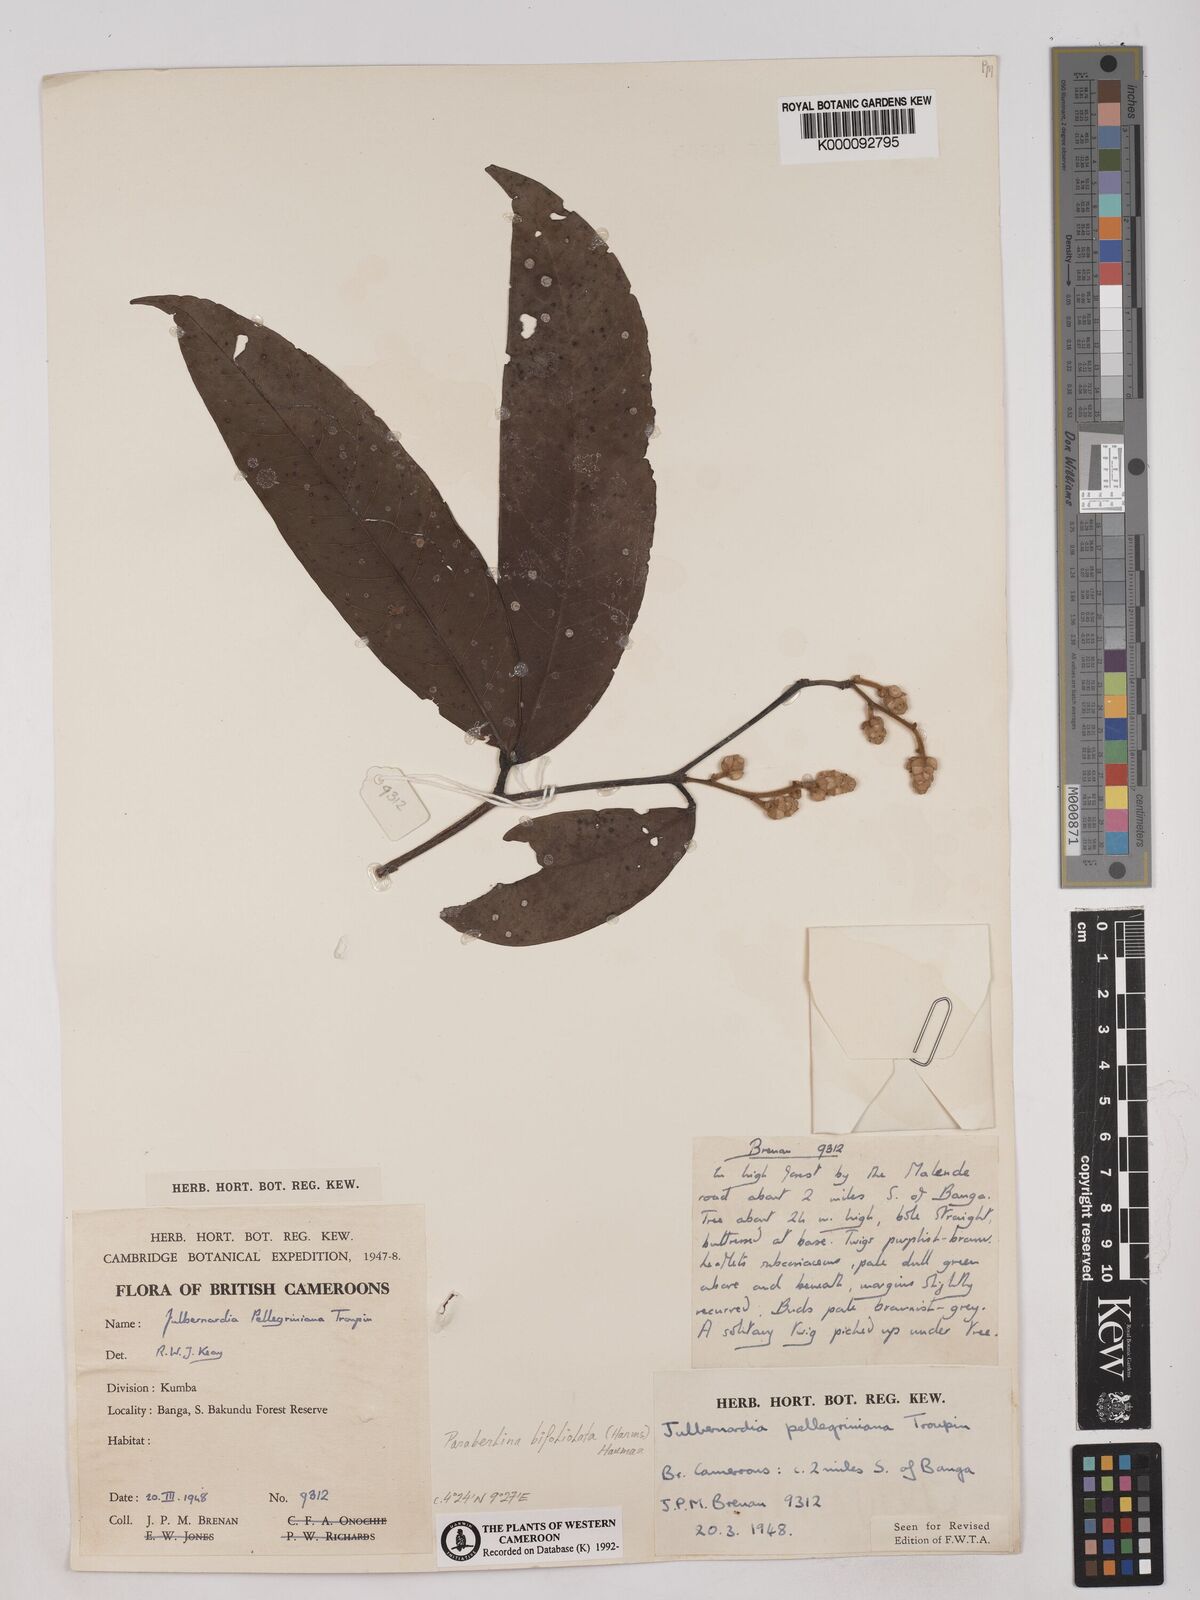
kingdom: Plantae
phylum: Tracheophyta
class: Magnoliopsida
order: Fabales
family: Fabaceae
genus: Julbernardia
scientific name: Julbernardia pellegriniana
